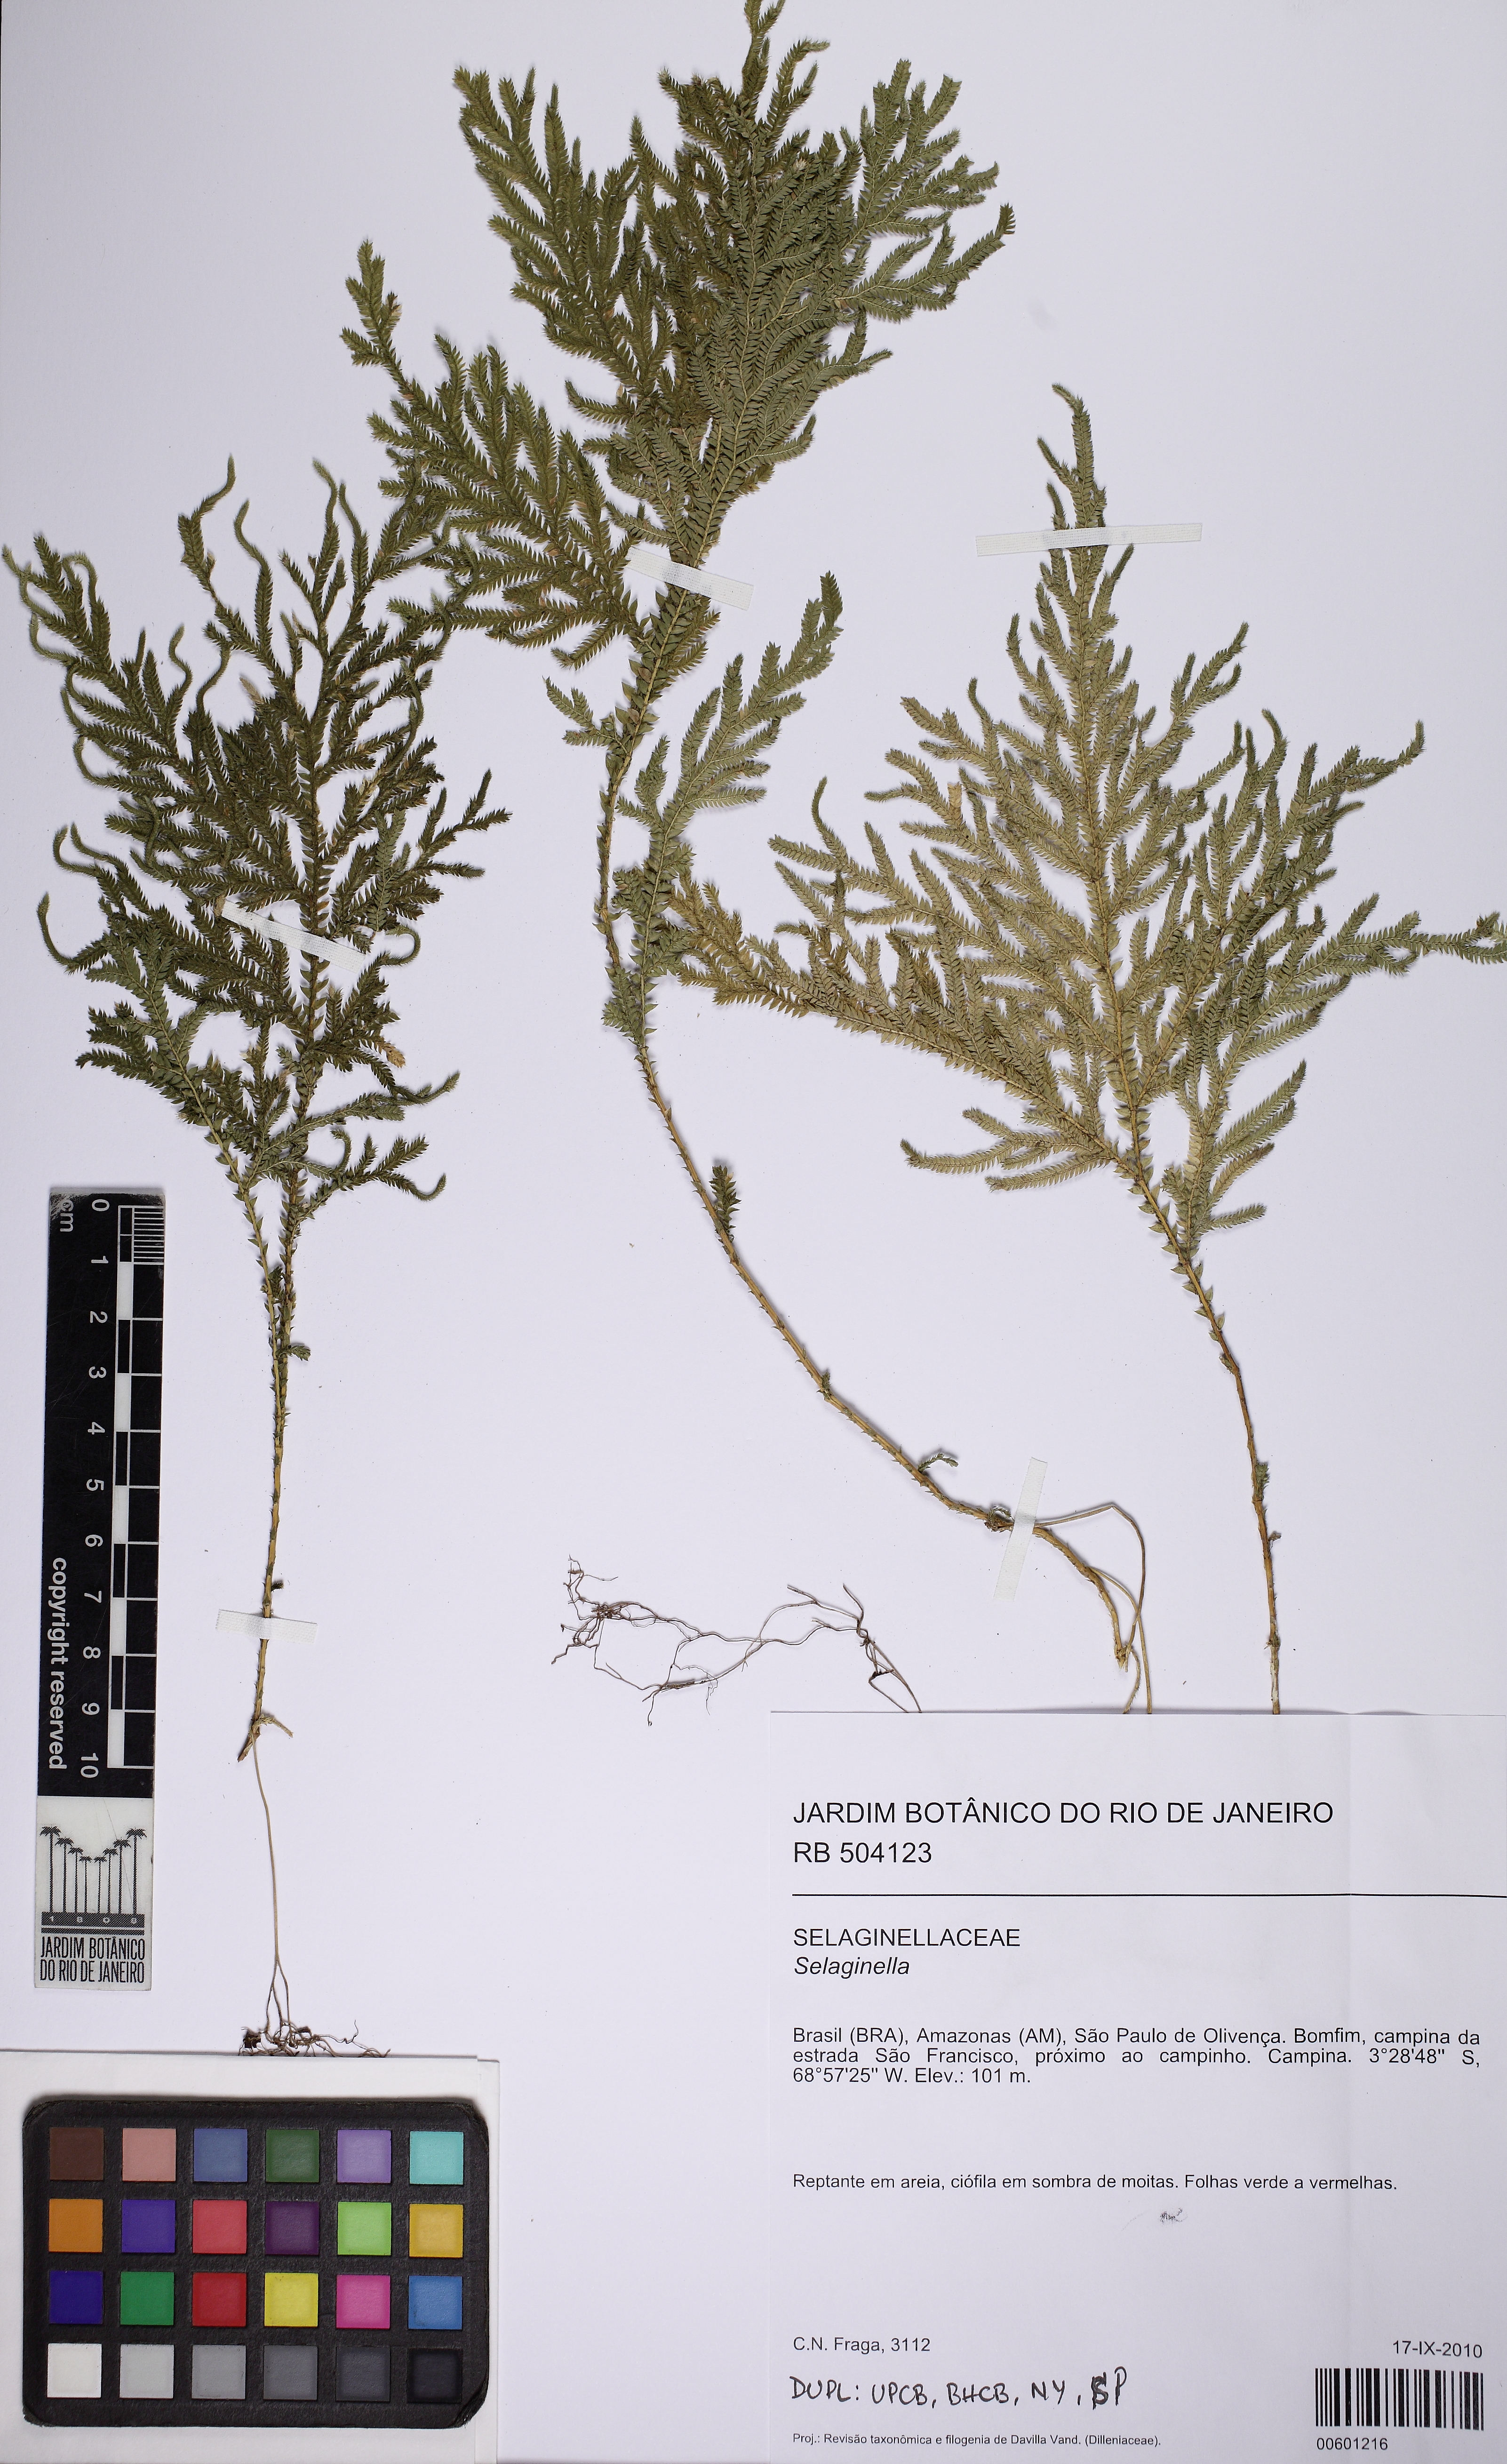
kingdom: Plantae
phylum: Tracheophyta
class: Lycopodiopsida
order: Selaginellales
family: Selaginellaceae
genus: Selaginella
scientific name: Selaginella conduplicata
